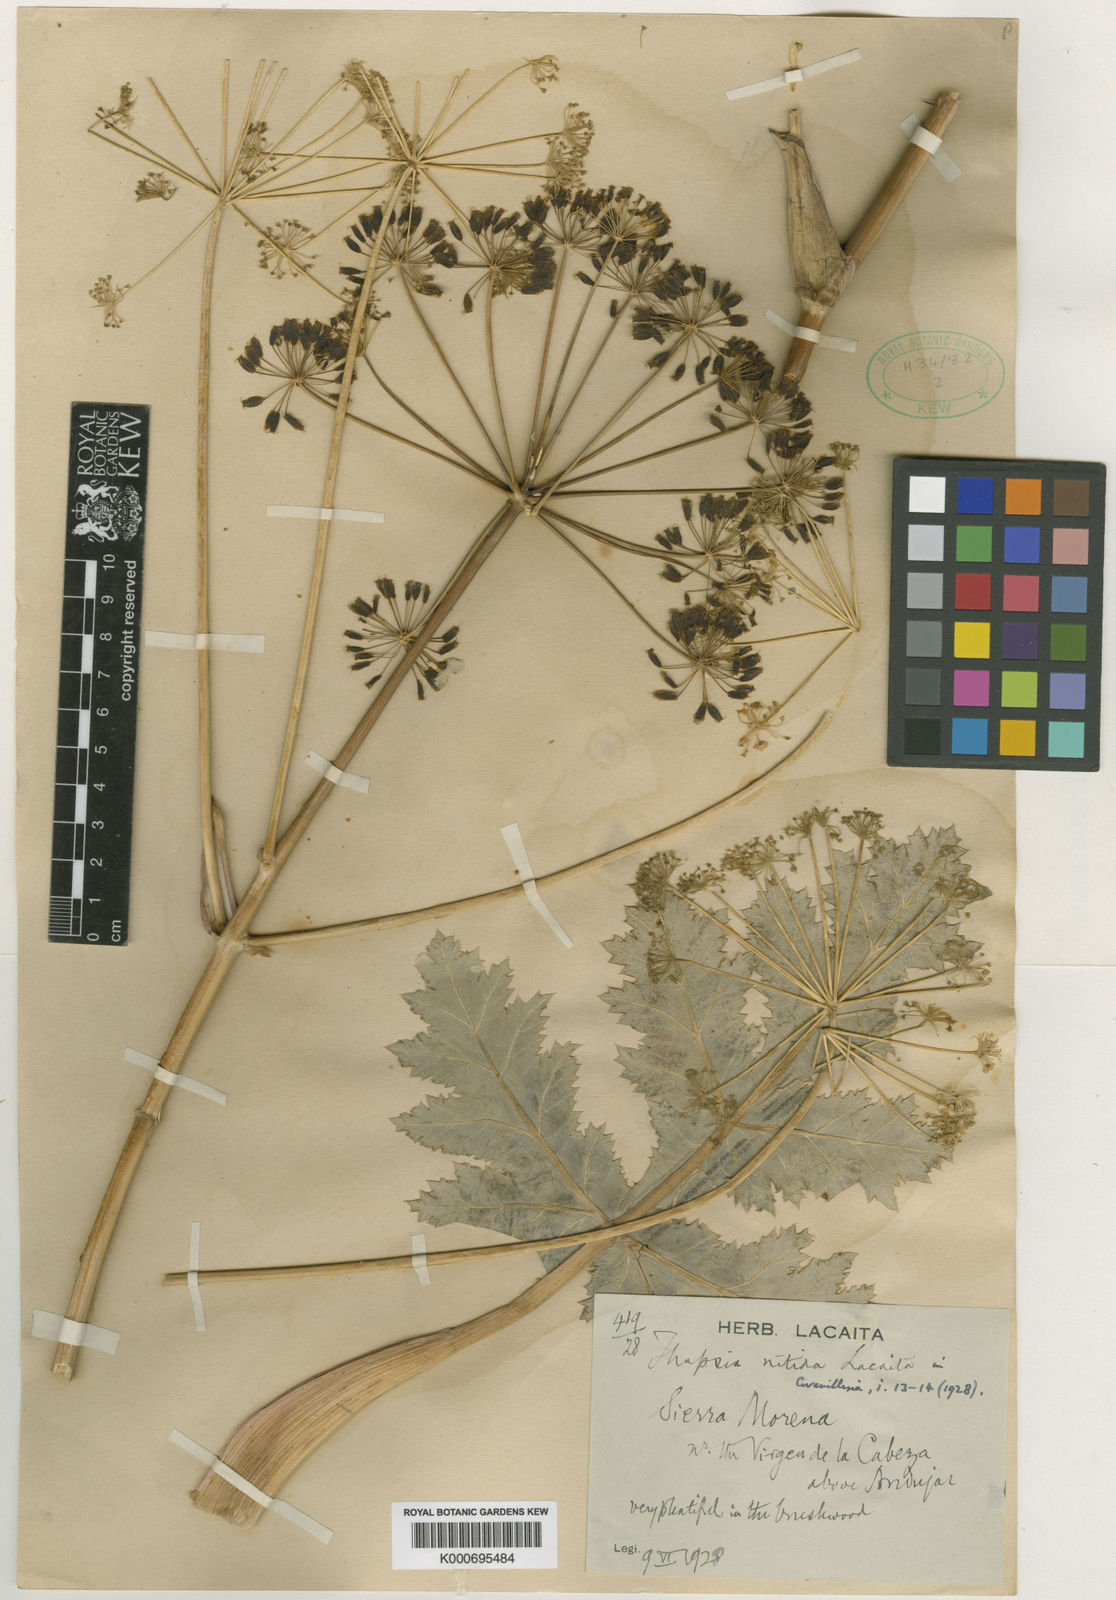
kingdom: Plantae
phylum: Tracheophyta
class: Magnoliopsida
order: Apiales
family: Apiaceae
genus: Thapsia
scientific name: Thapsia nitida
